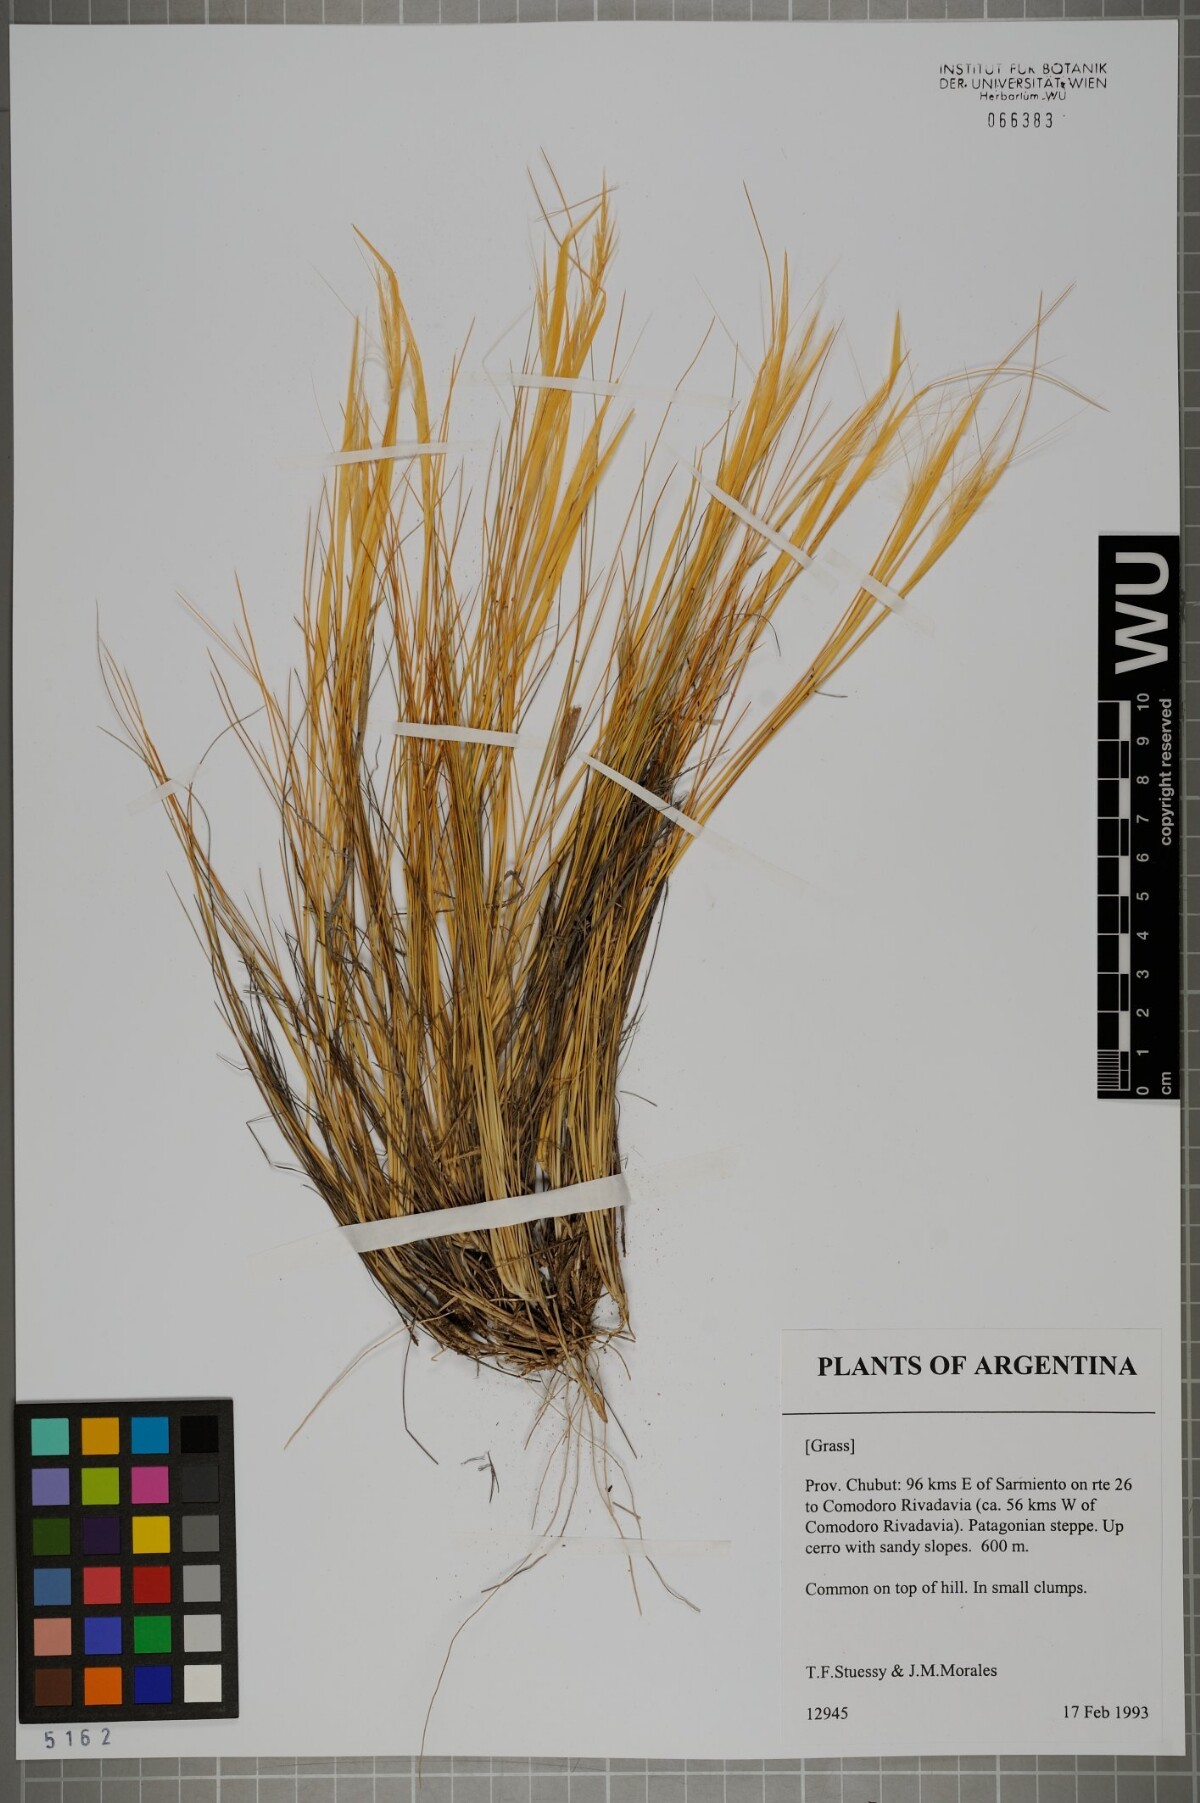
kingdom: Plantae
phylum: Tracheophyta
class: Liliopsida
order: Poales
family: Poaceae
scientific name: Poaceae
